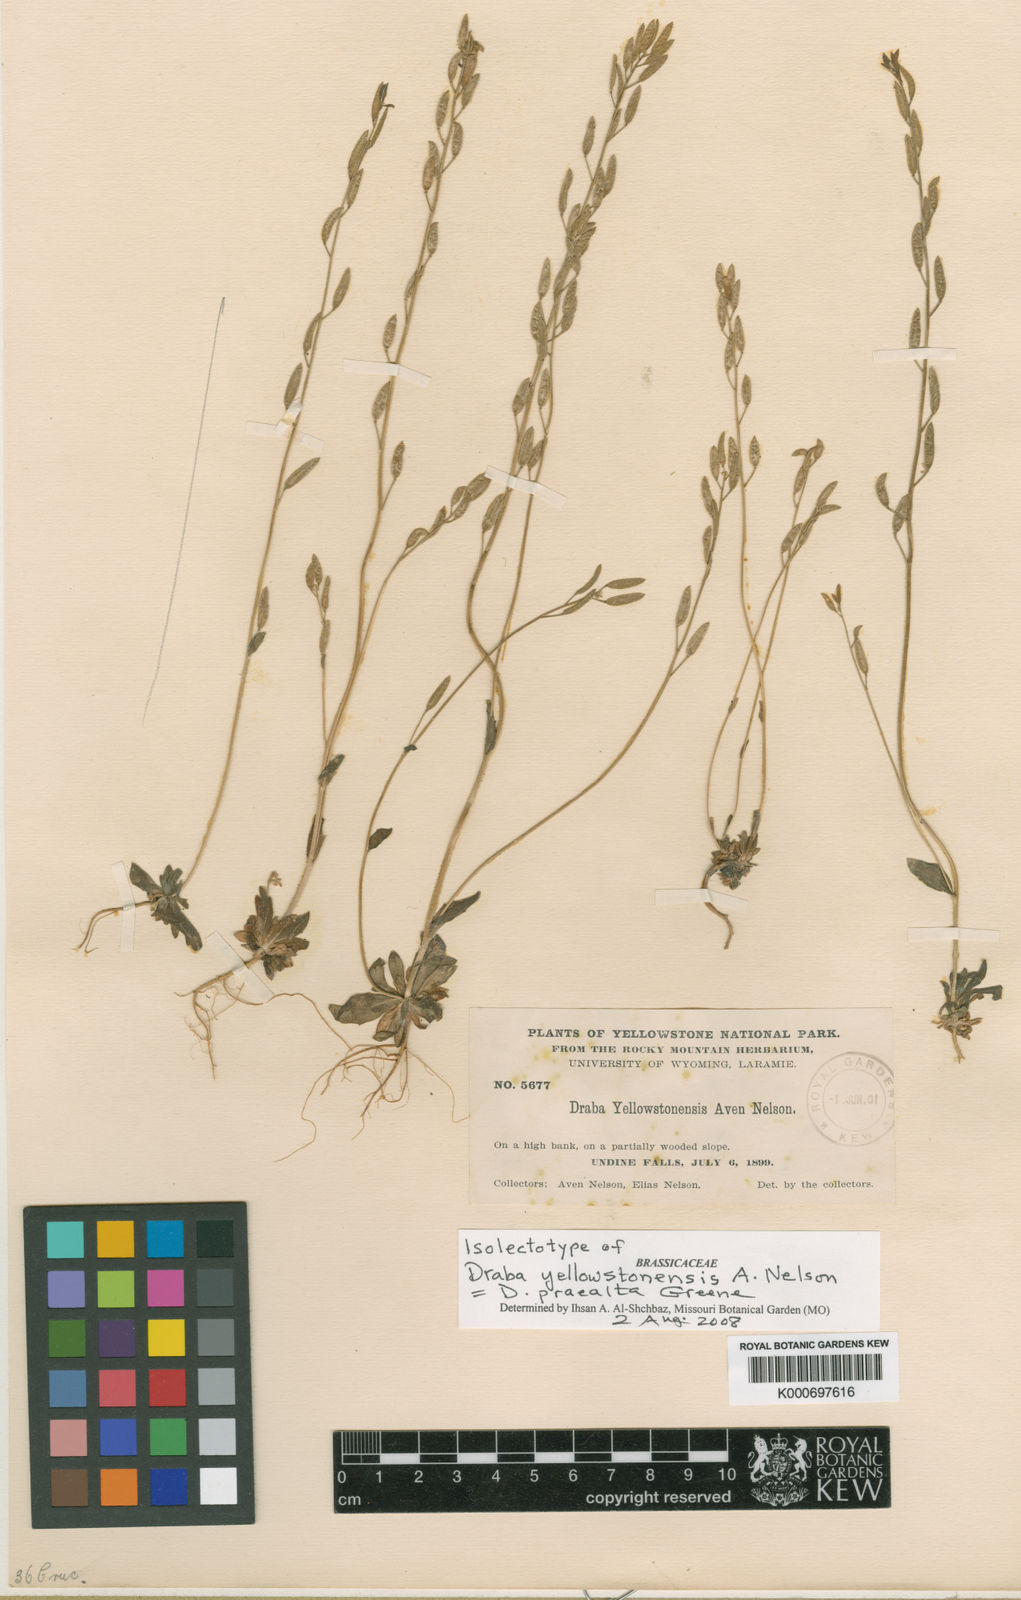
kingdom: Plantae
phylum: Tracheophyta
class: Magnoliopsida
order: Brassicales
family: Brassicaceae
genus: Draba
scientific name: Draba praealta
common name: Tall draba
